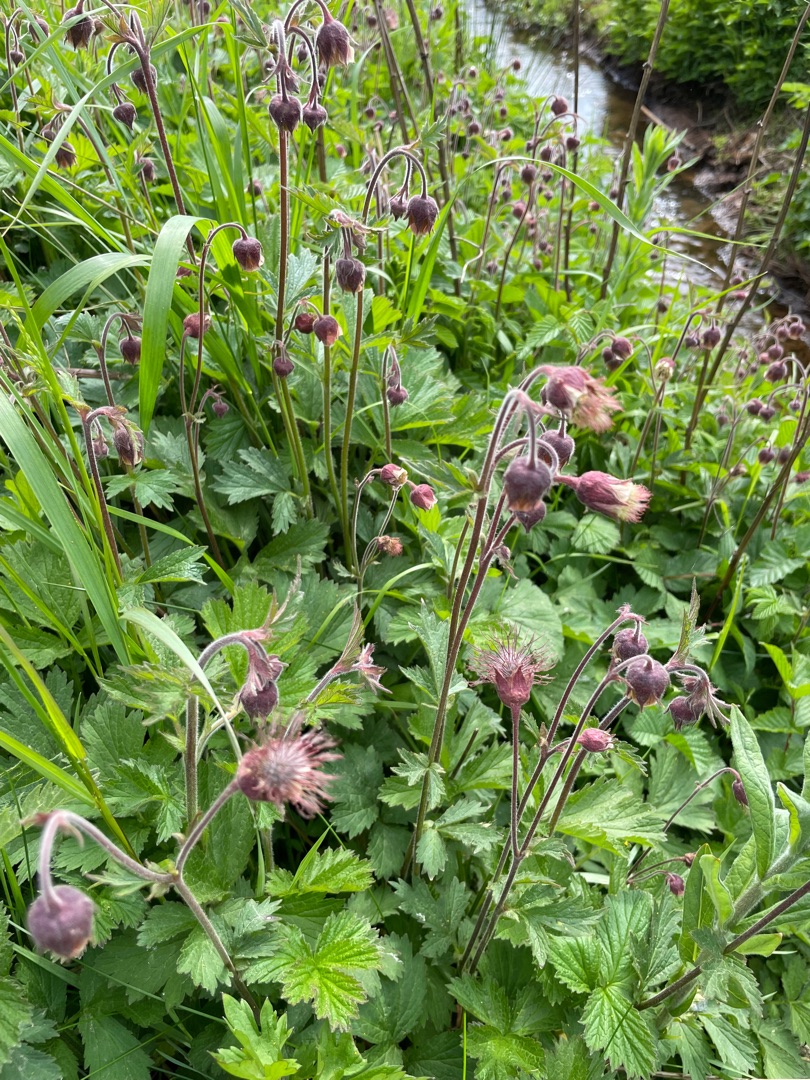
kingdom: Plantae
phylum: Tracheophyta
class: Magnoliopsida
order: Rosales
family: Rosaceae
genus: Geum
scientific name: Geum rivale
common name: Eng-nellikerod
